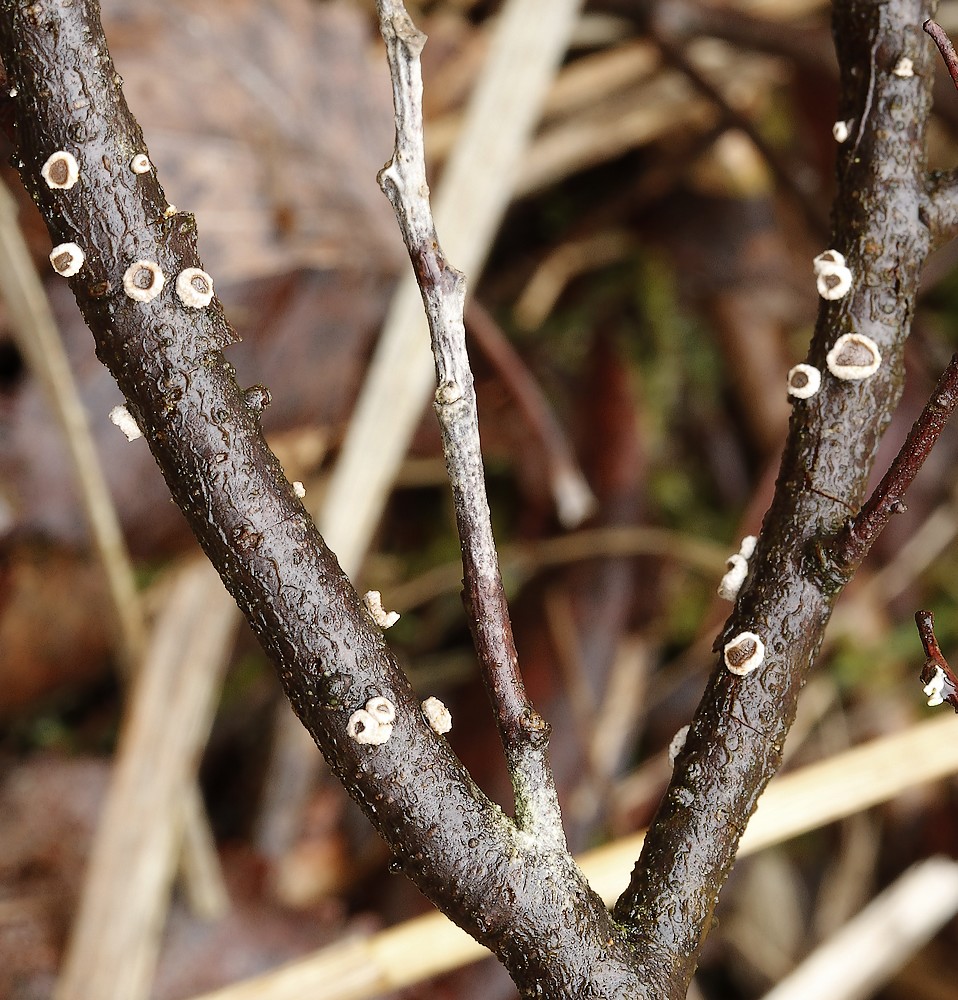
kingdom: Fungi
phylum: Ascomycota
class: Leotiomycetes
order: Helotiales
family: Cenangiaceae
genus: Velutarina
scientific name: Velutarina rufo-olivacea
